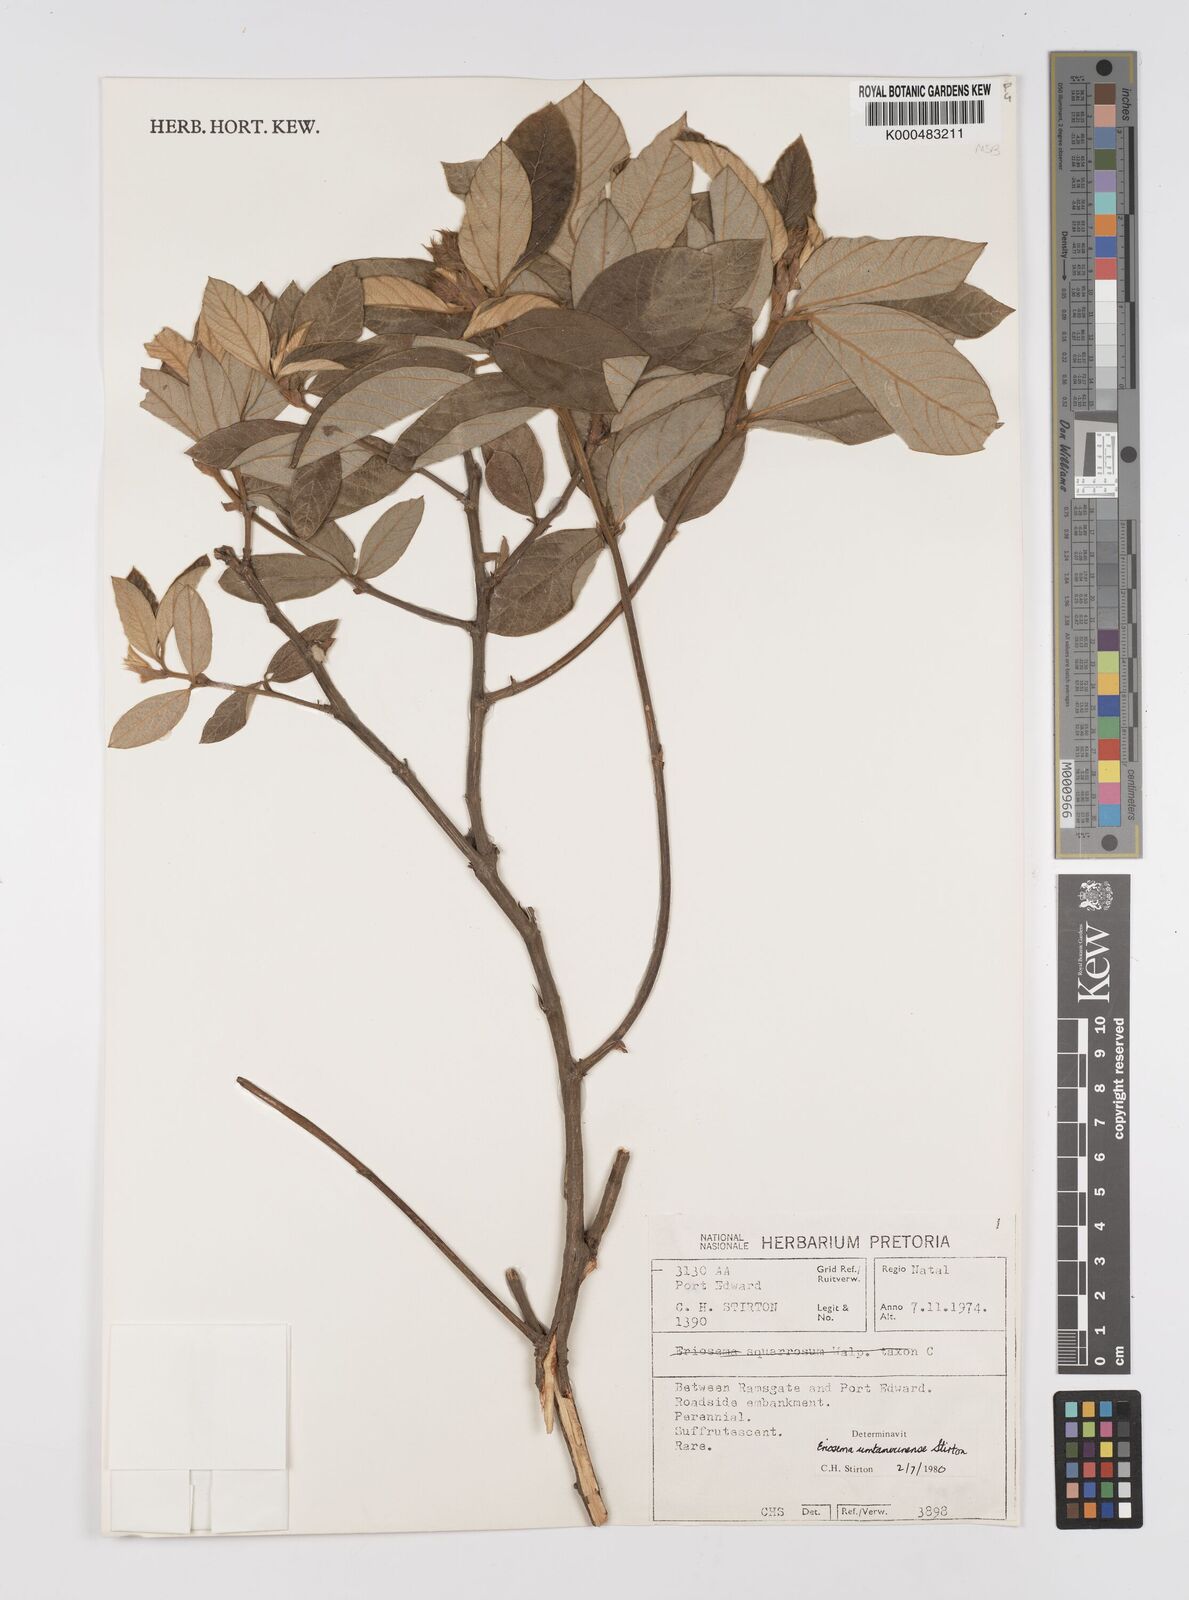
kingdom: Plantae
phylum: Tracheophyta
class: Magnoliopsida
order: Fabales
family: Fabaceae
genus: Eriosema
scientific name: Eriosema umtamvunense
